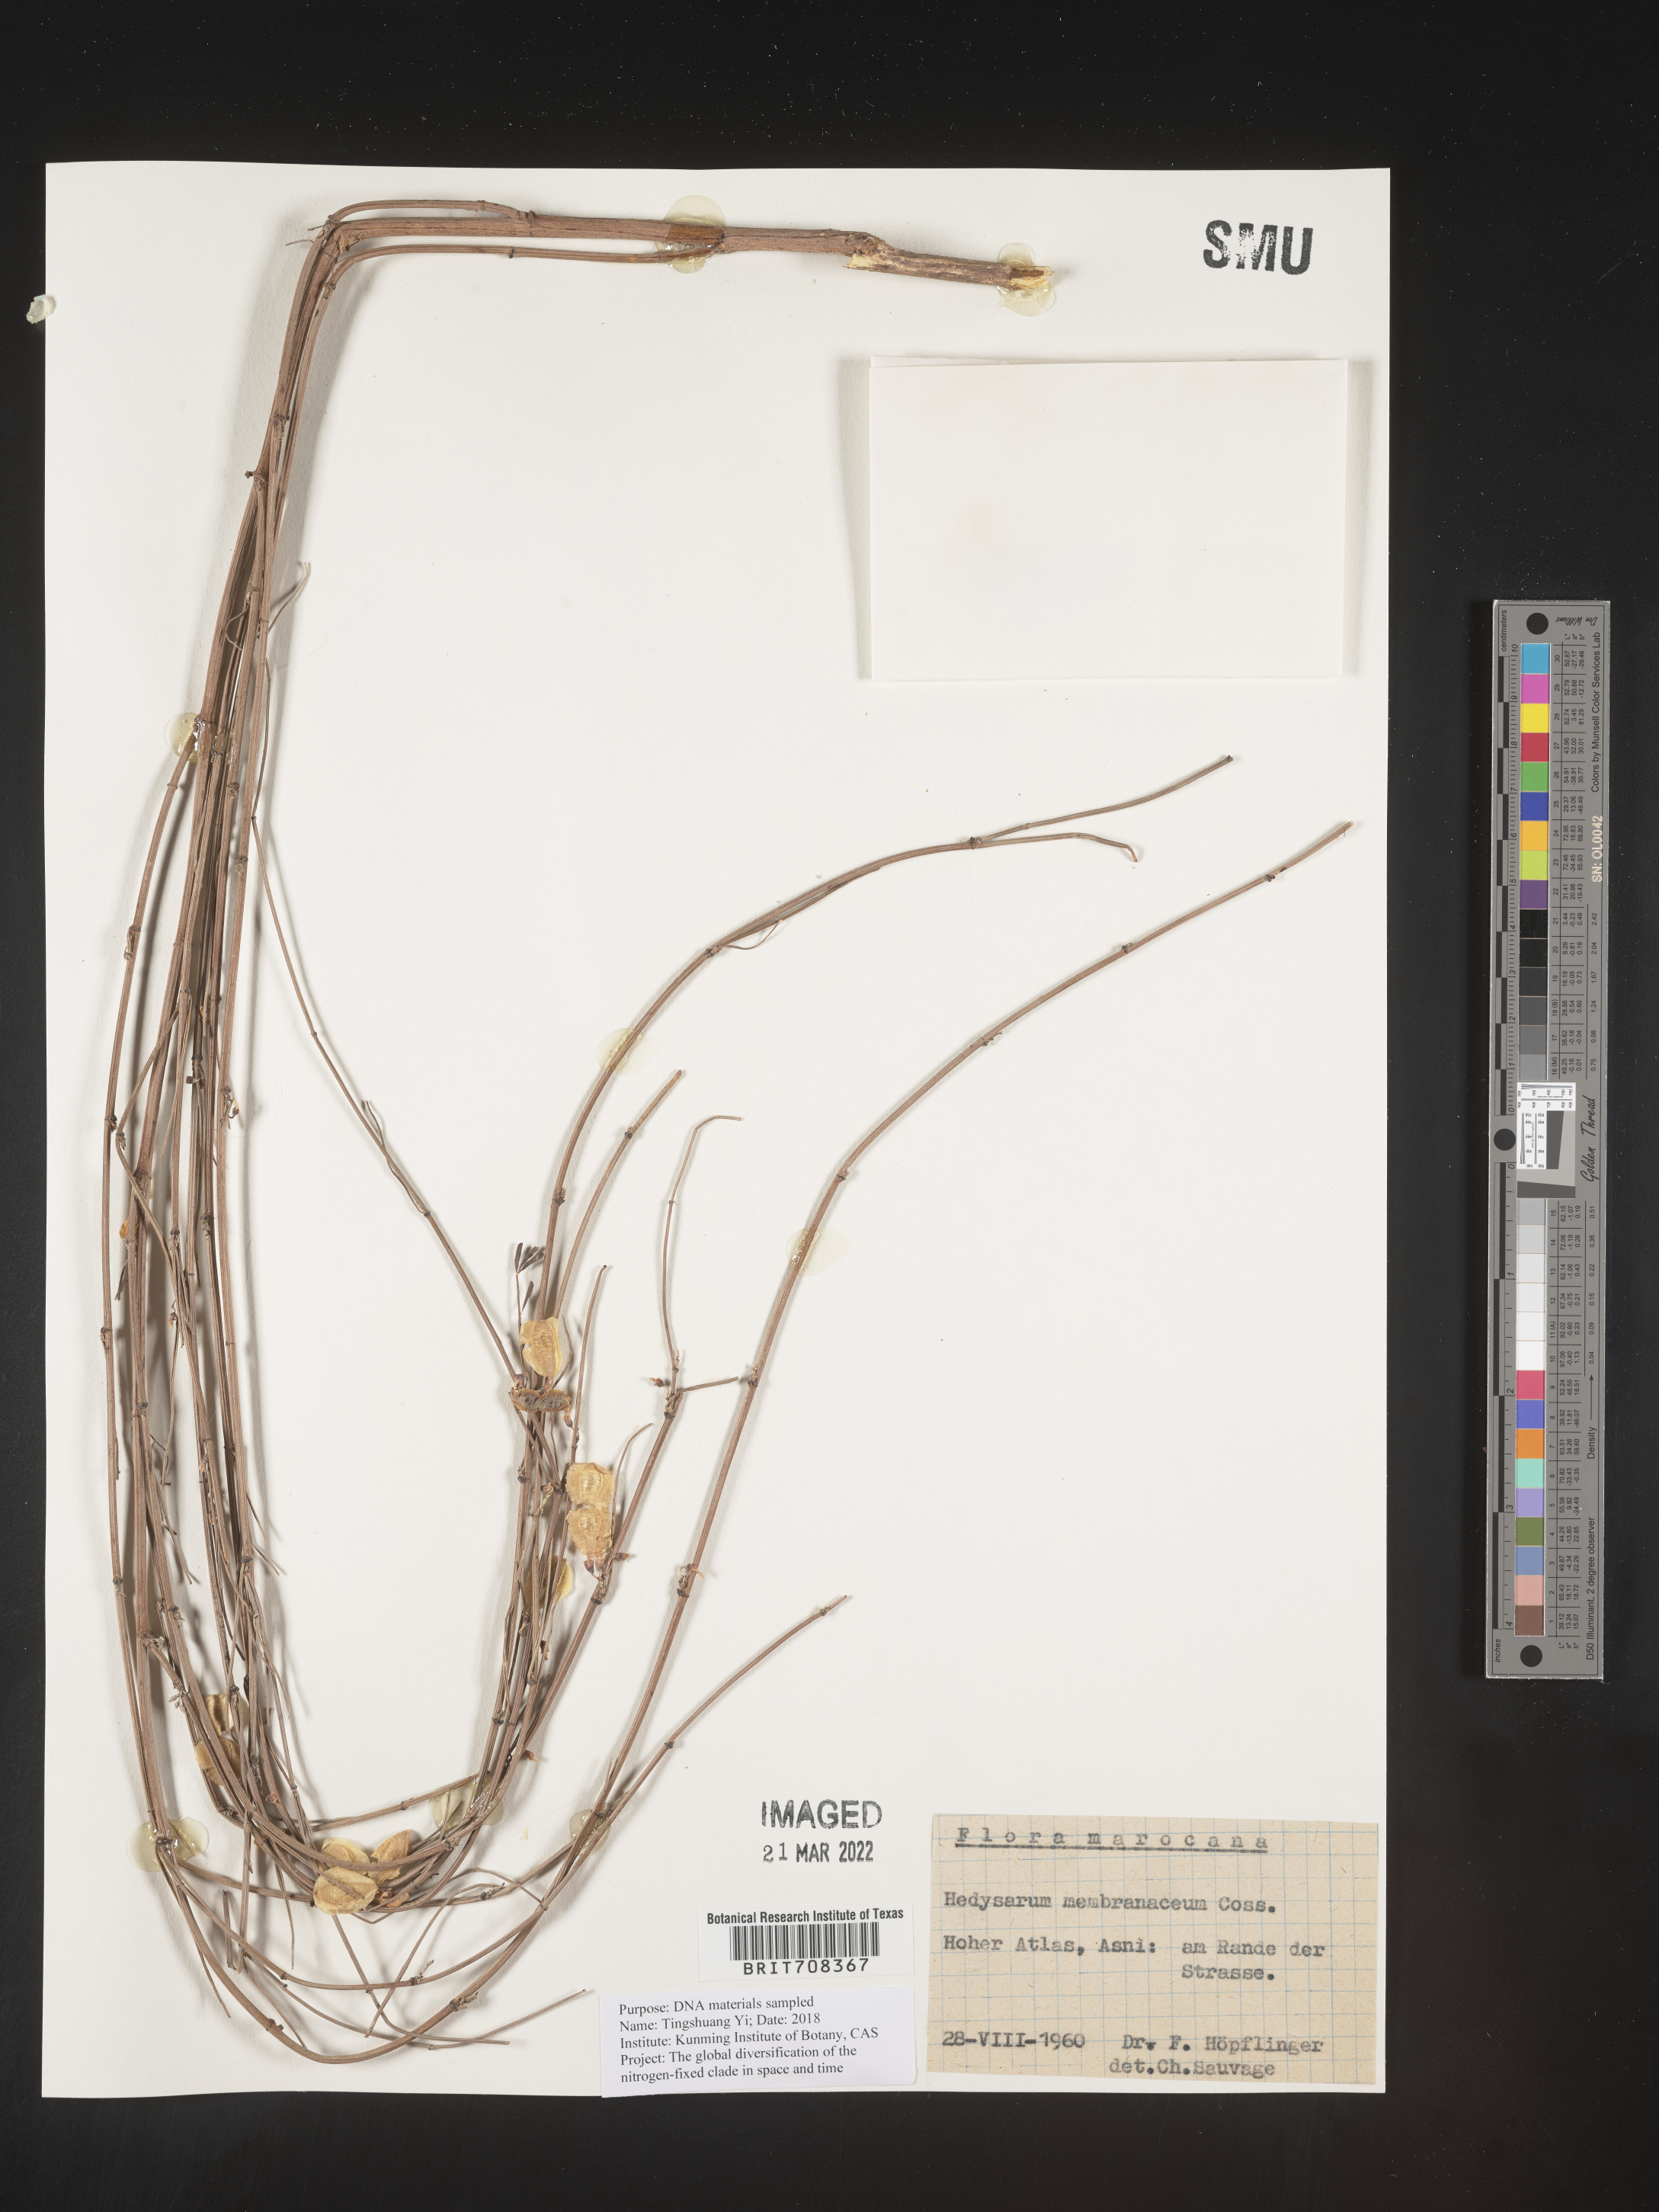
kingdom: Plantae
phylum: Tracheophyta
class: Magnoliopsida
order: Fabales
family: Fabaceae
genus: Hedysarum
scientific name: Hedysarum
